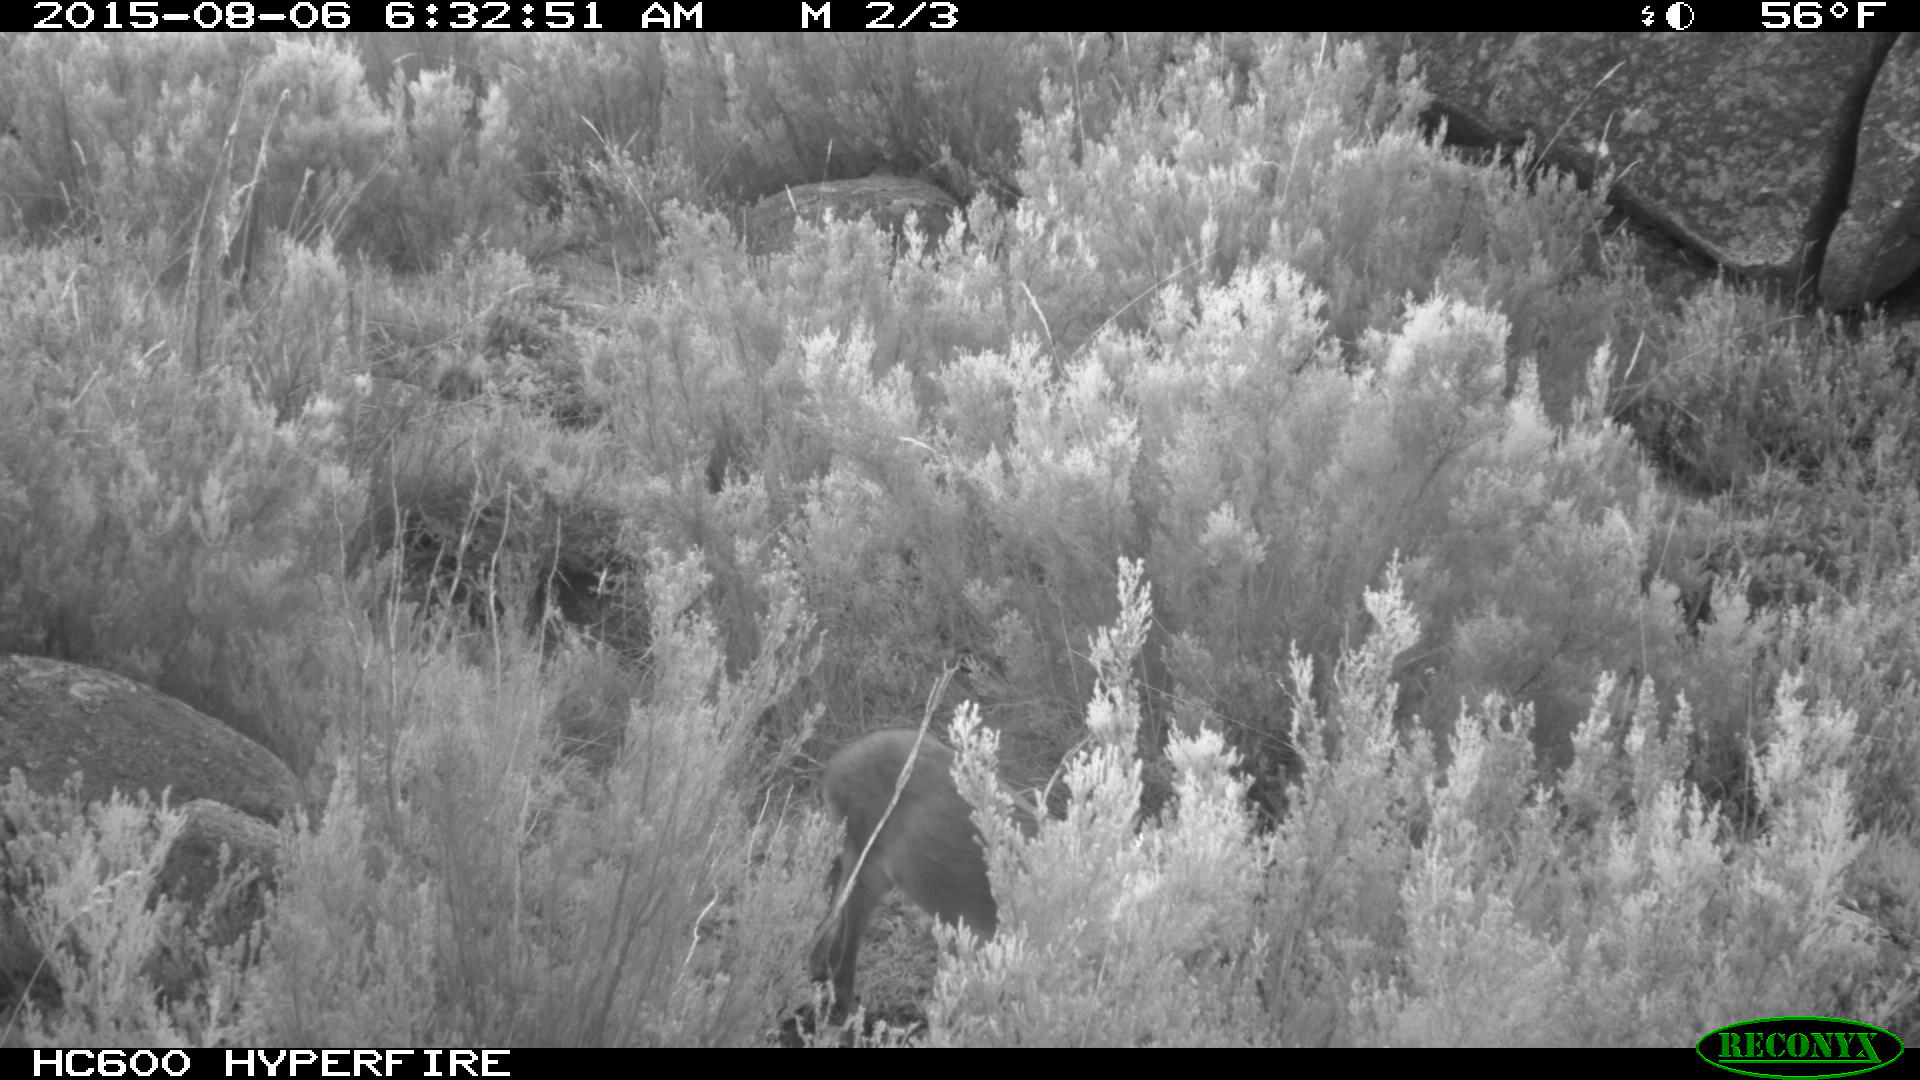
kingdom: Animalia
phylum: Chordata
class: Mammalia
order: Artiodactyla
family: Cervidae
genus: Capreolus
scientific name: Capreolus capreolus
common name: Western roe deer
